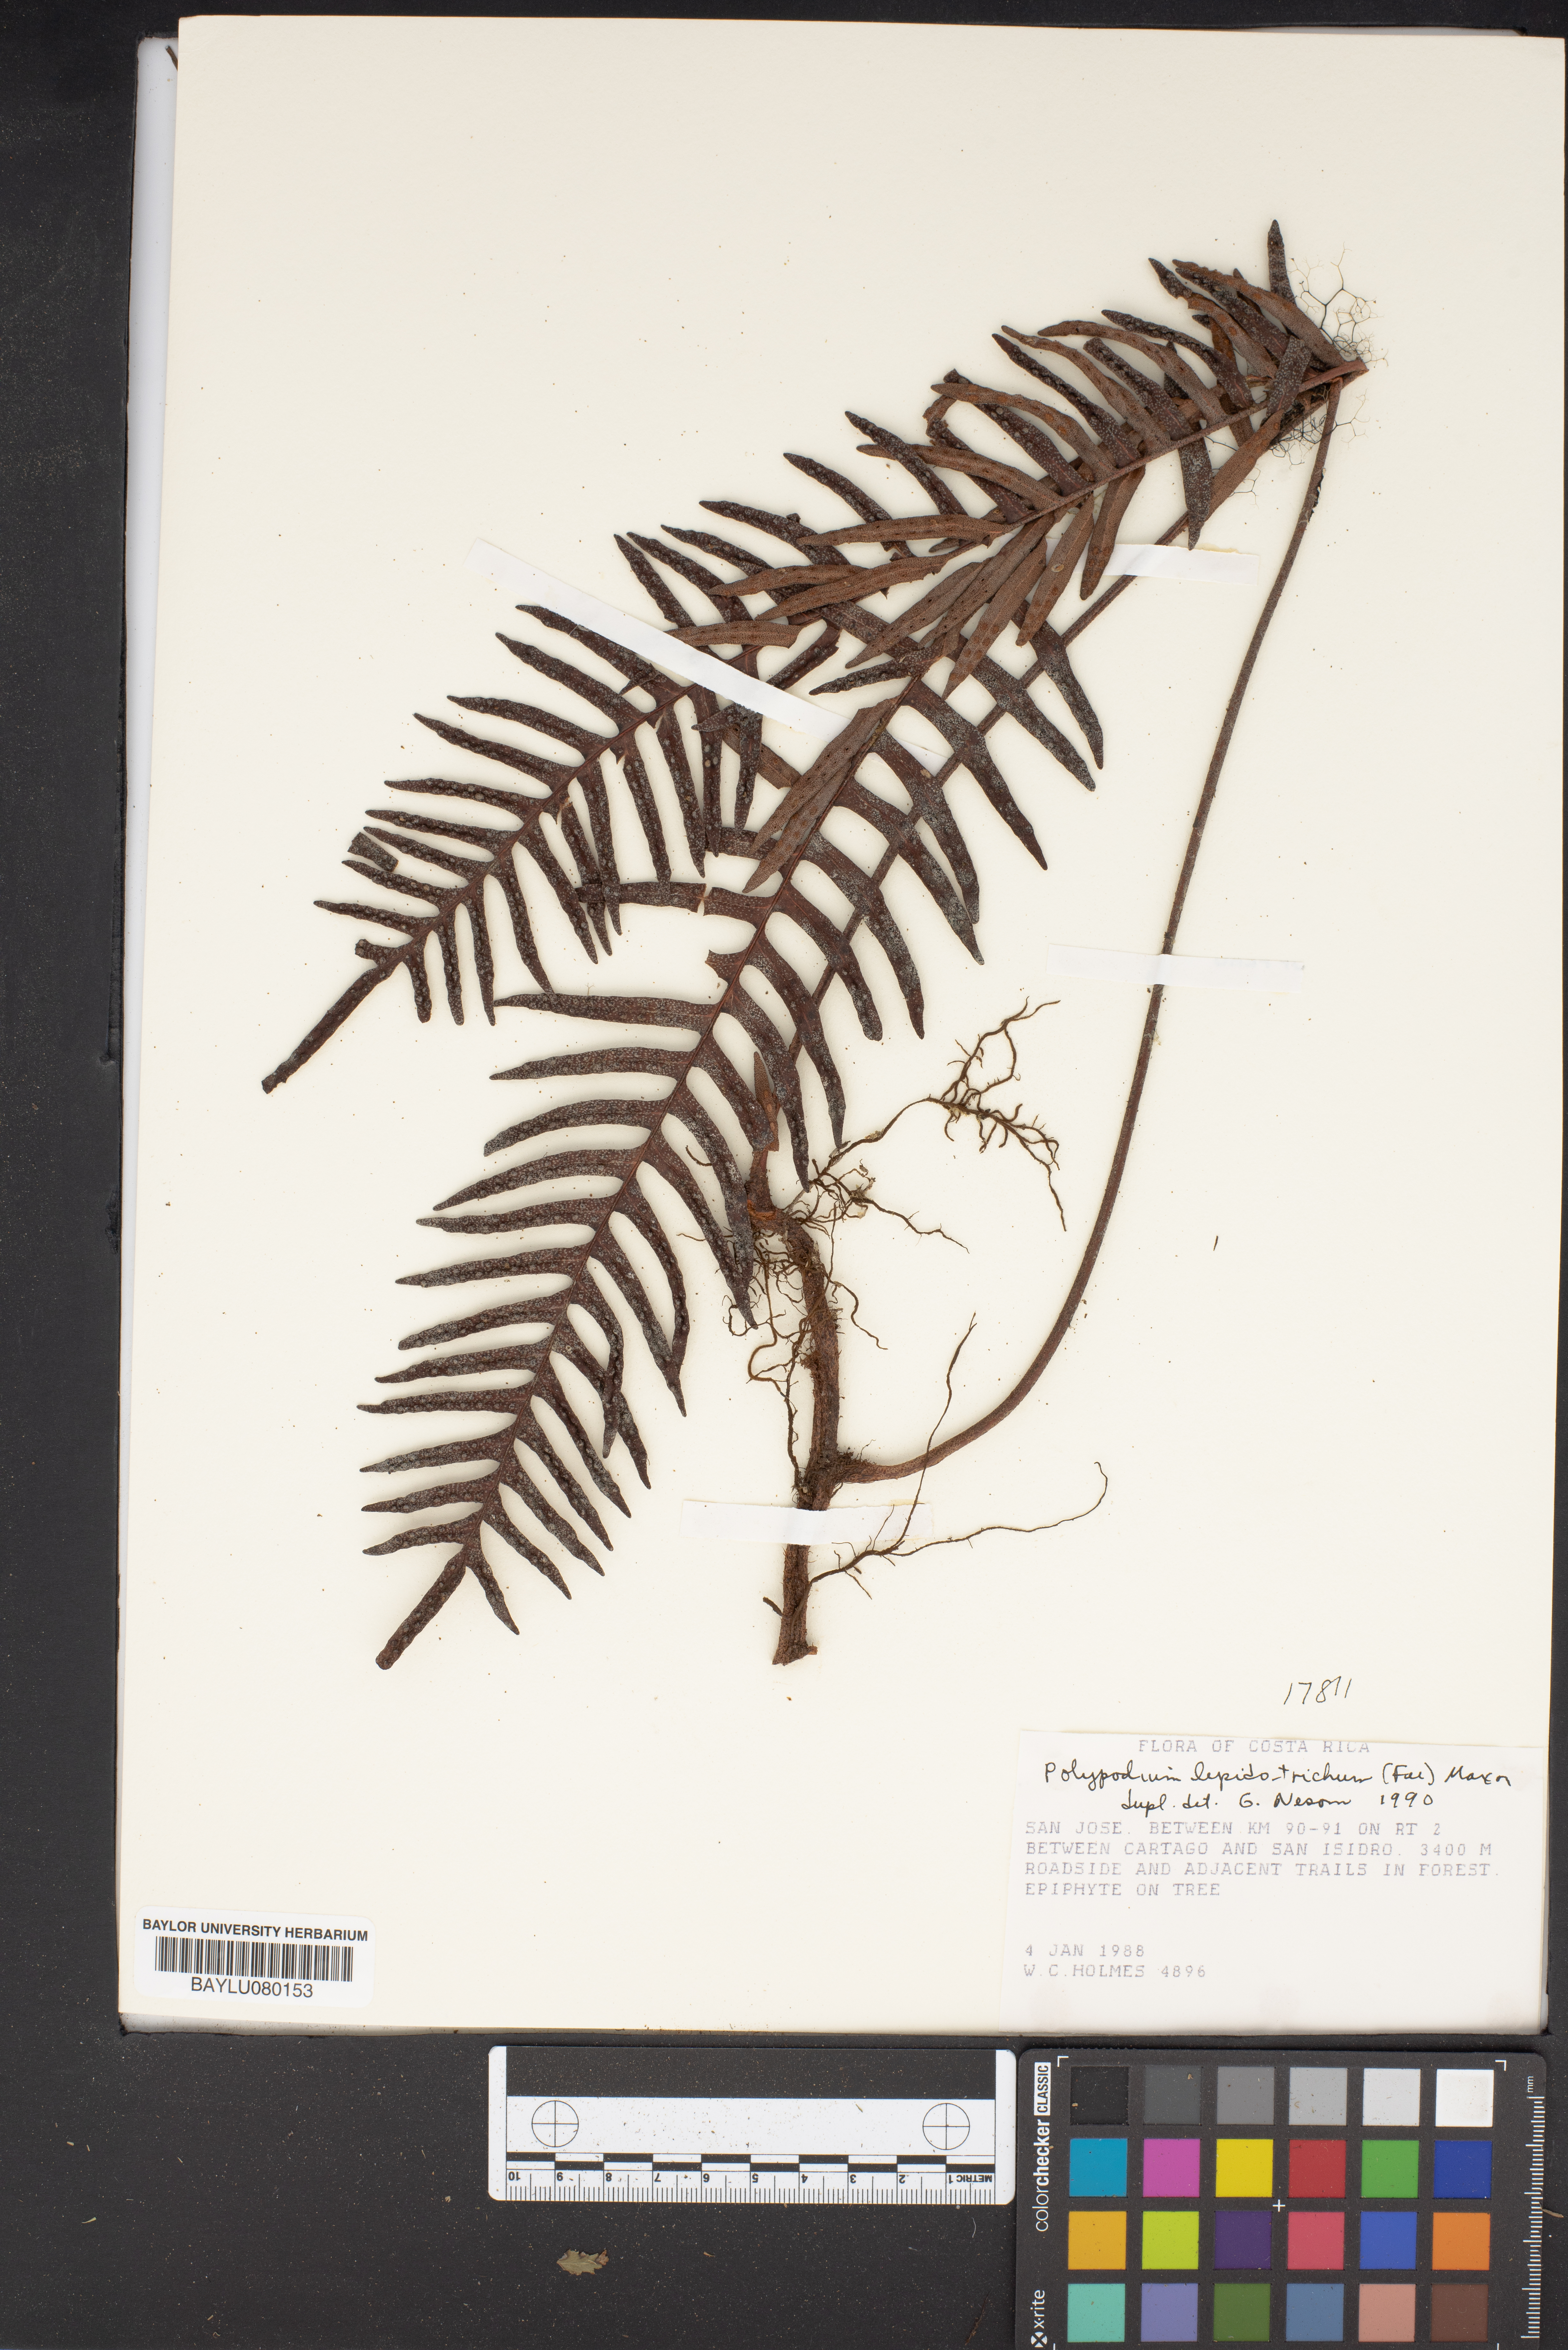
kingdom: Plantae
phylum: Tracheophyta
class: Polypodiopsida
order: Polypodiales
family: Polypodiaceae
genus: Pleopeltis
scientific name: Pleopeltis lepidotricha
